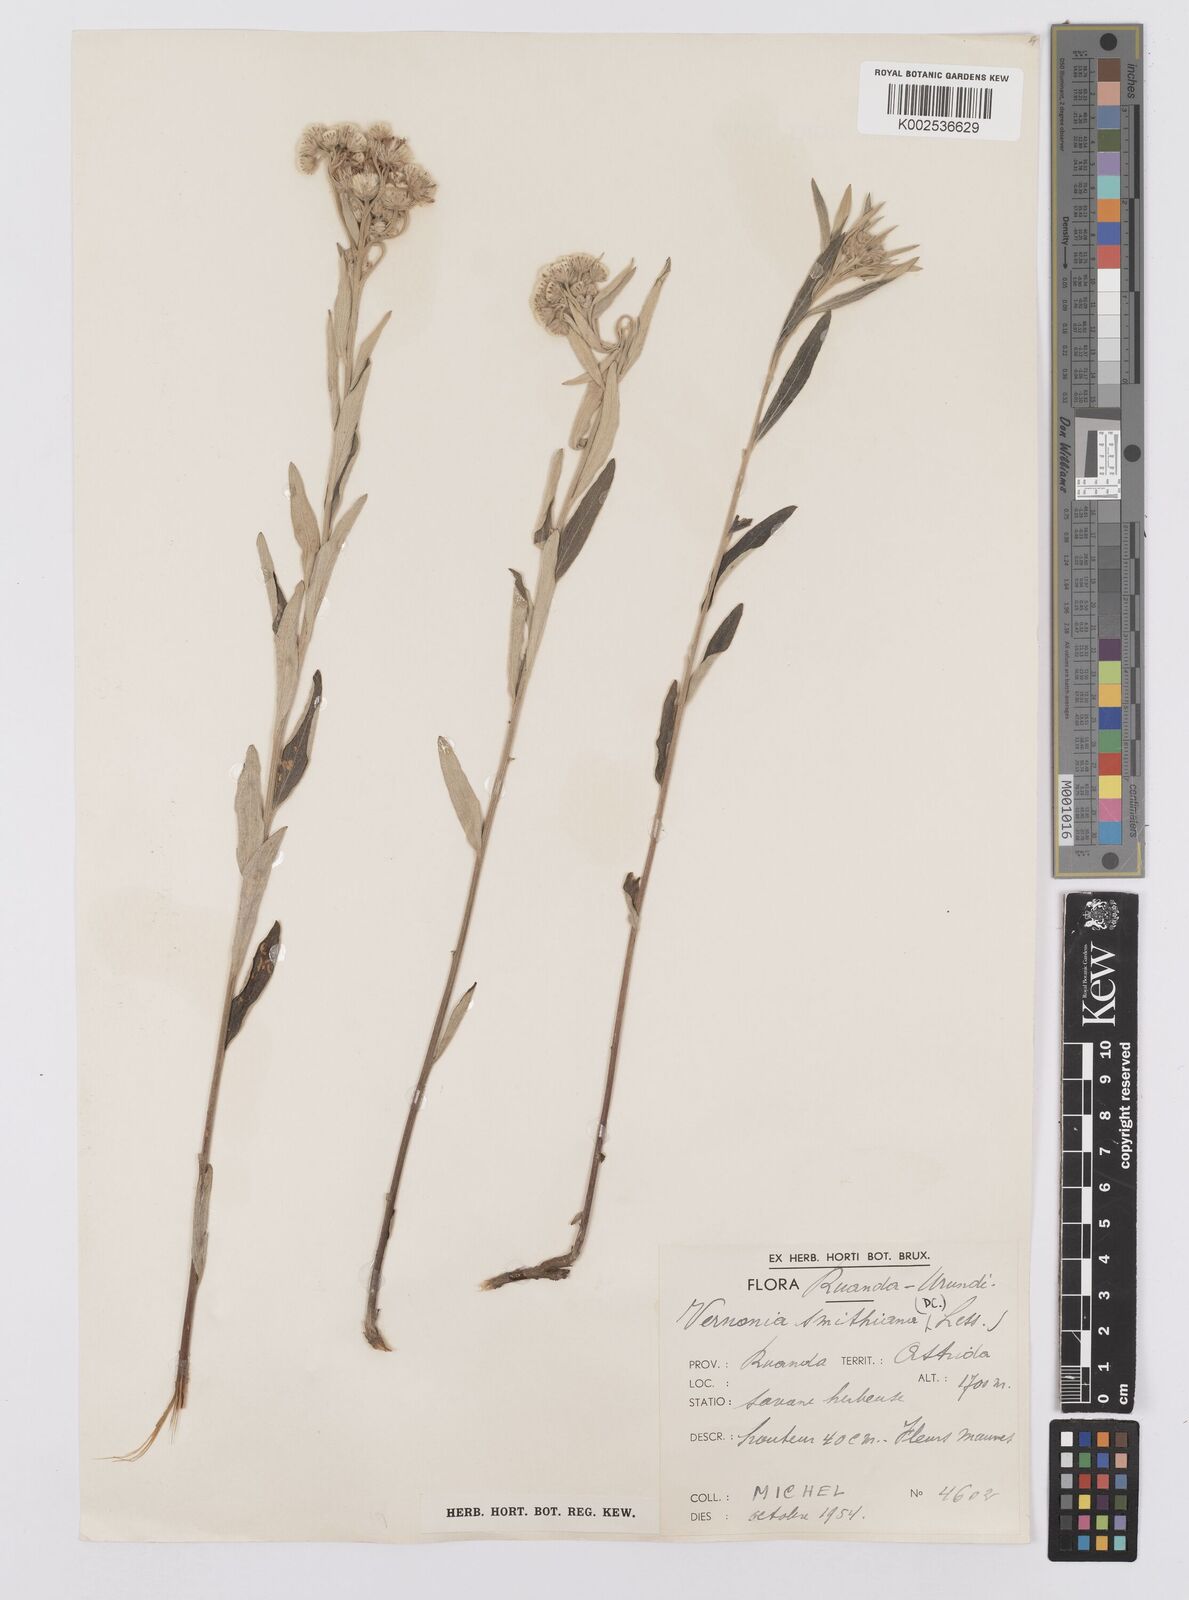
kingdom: Plantae
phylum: Tracheophyta
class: Magnoliopsida
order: Asterales
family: Asteraceae
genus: Hilliardiella
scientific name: Hilliardiella smithiana
